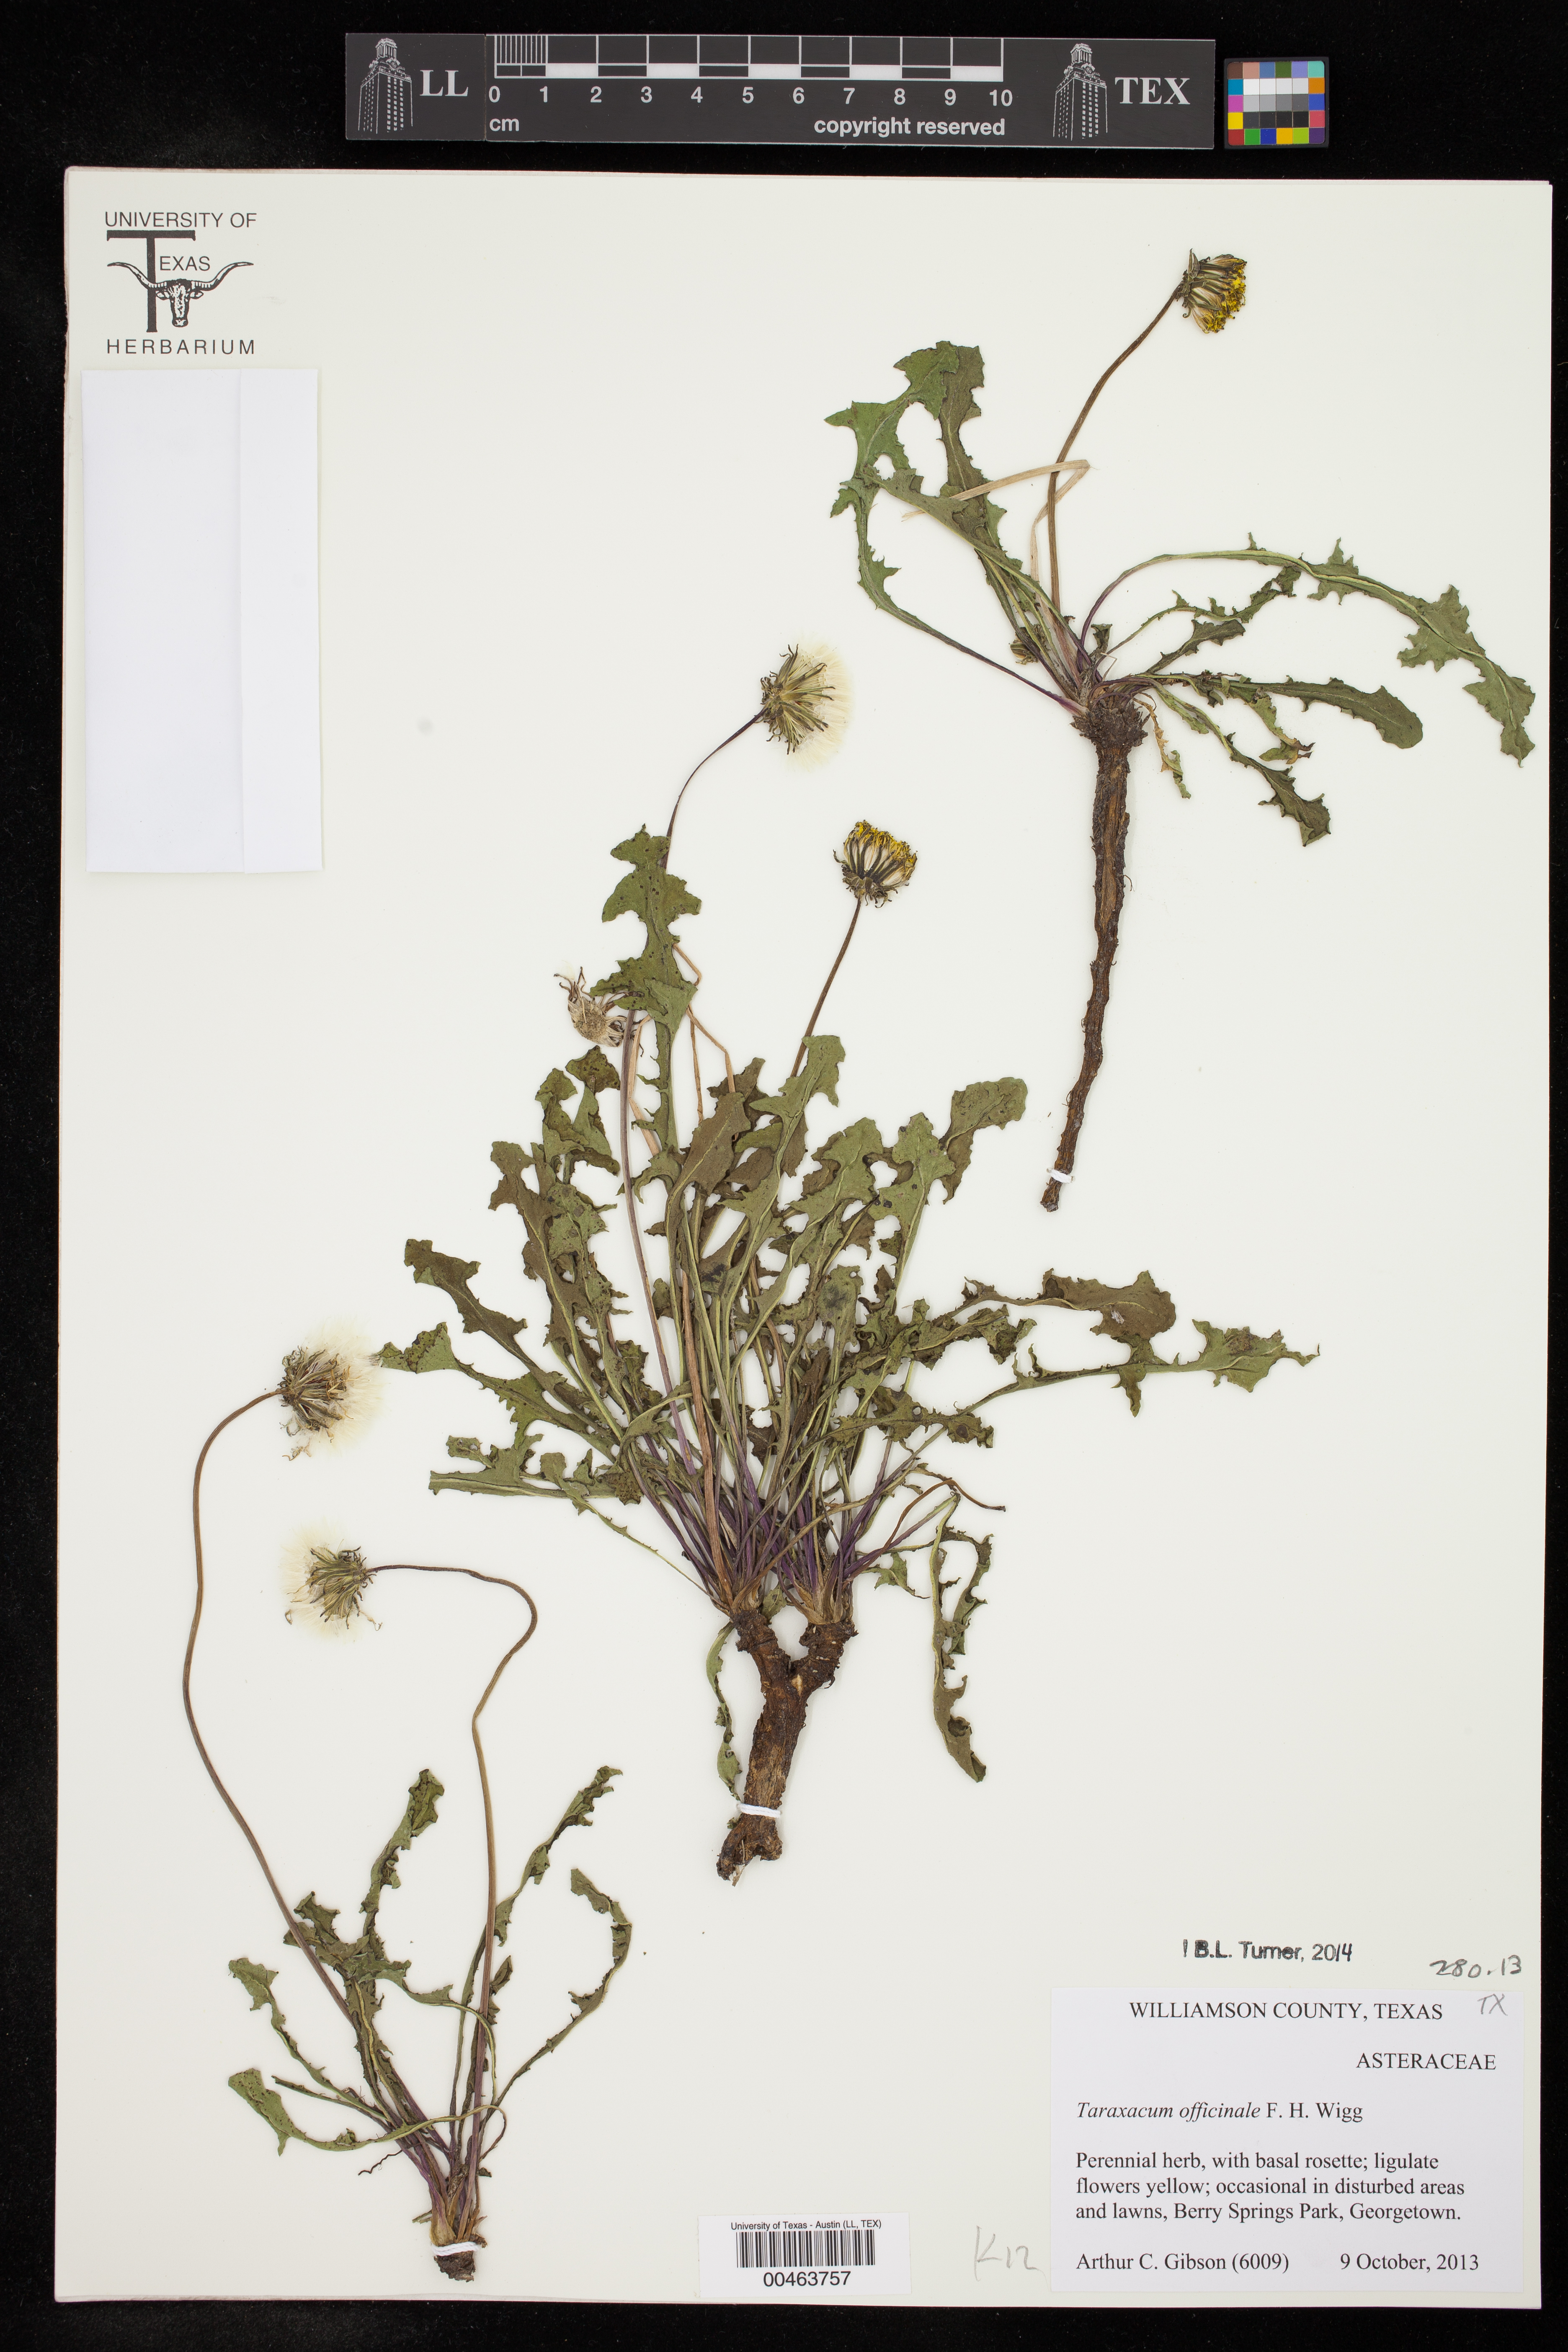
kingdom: Plantae
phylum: Tracheophyta
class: Magnoliopsida
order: Asterales
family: Asteraceae
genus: Taraxacum
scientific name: Taraxacum officinale
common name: Common dandelion
